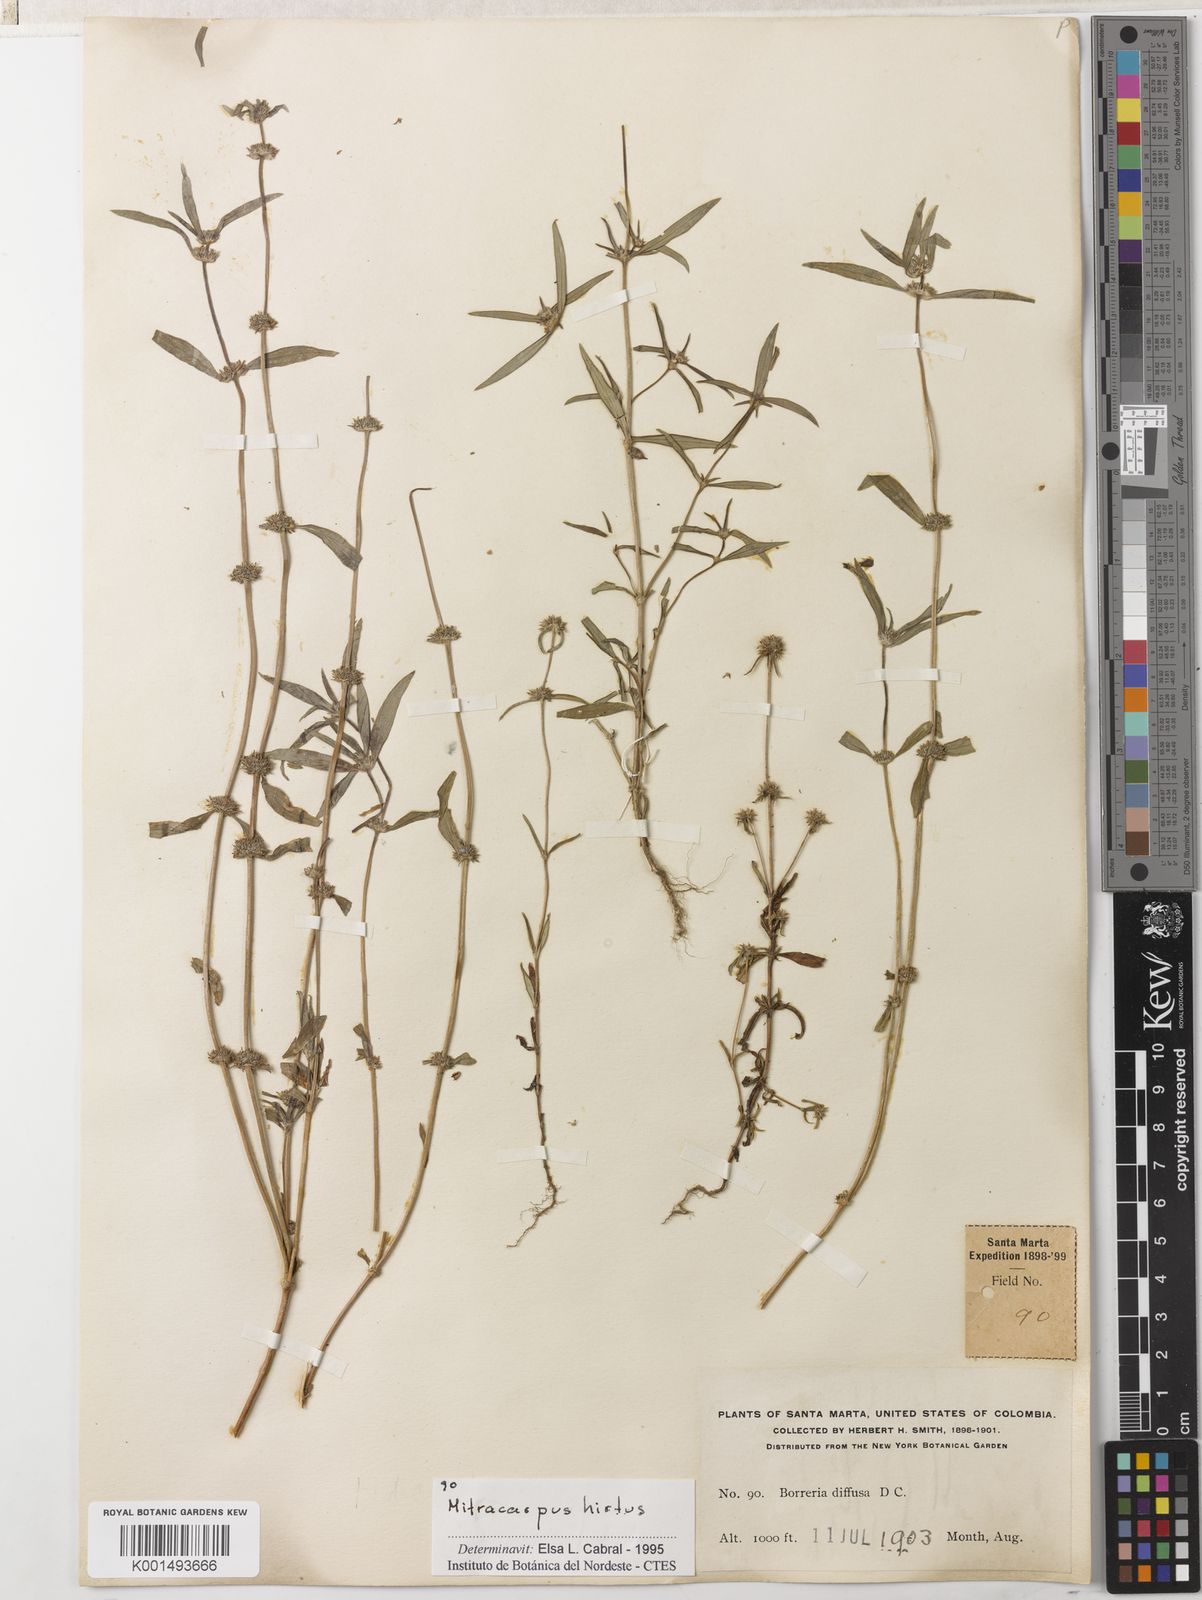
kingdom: Plantae
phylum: Tracheophyta
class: Magnoliopsida
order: Gentianales
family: Rubiaceae
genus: Mitracarpus
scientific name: Mitracarpus hirtus
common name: Tropical girdlepod
